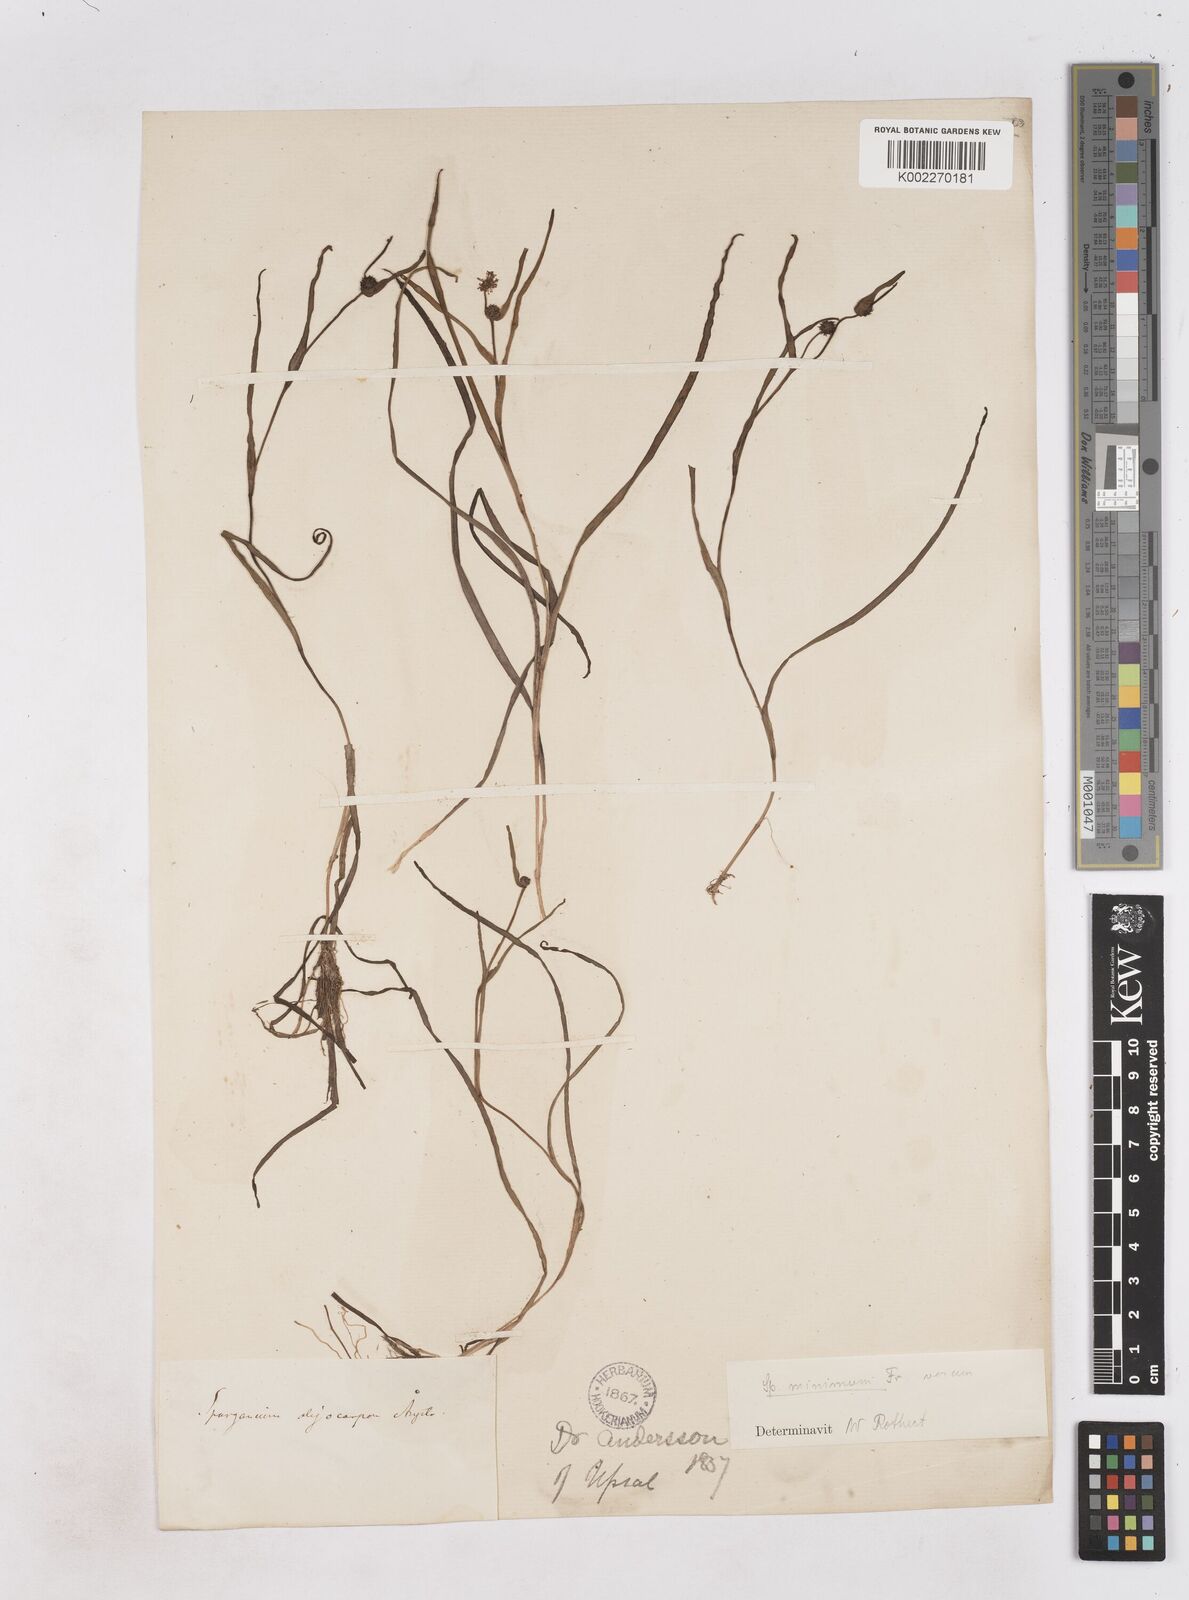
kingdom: Plantae
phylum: Tracheophyta
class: Liliopsida
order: Poales
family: Typhaceae
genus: Sparganium
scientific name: Sparganium oligocarpon
